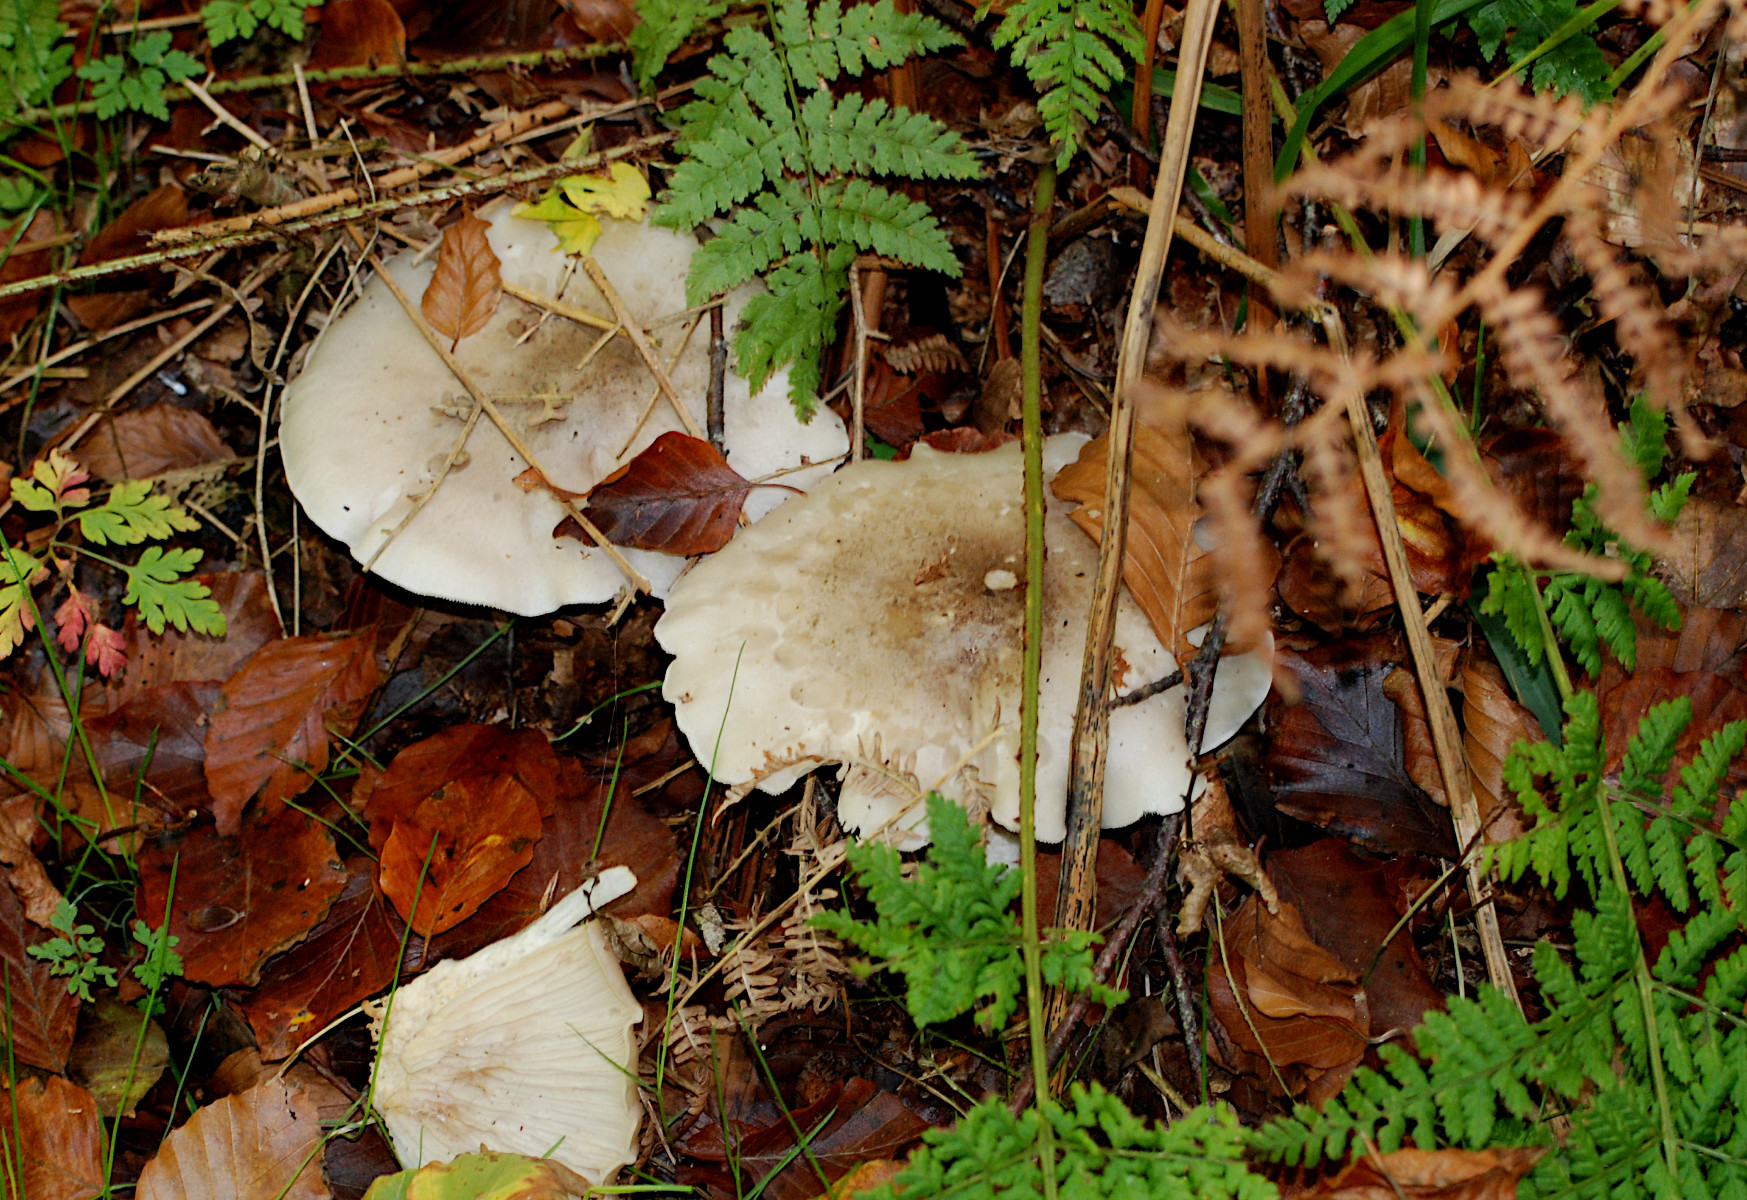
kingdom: Fungi
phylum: Basidiomycota
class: Agaricomycetes
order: Agaricales
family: Tricholomataceae
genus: Clitocybe
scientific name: Clitocybe nebularis
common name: tåge-tragthat
